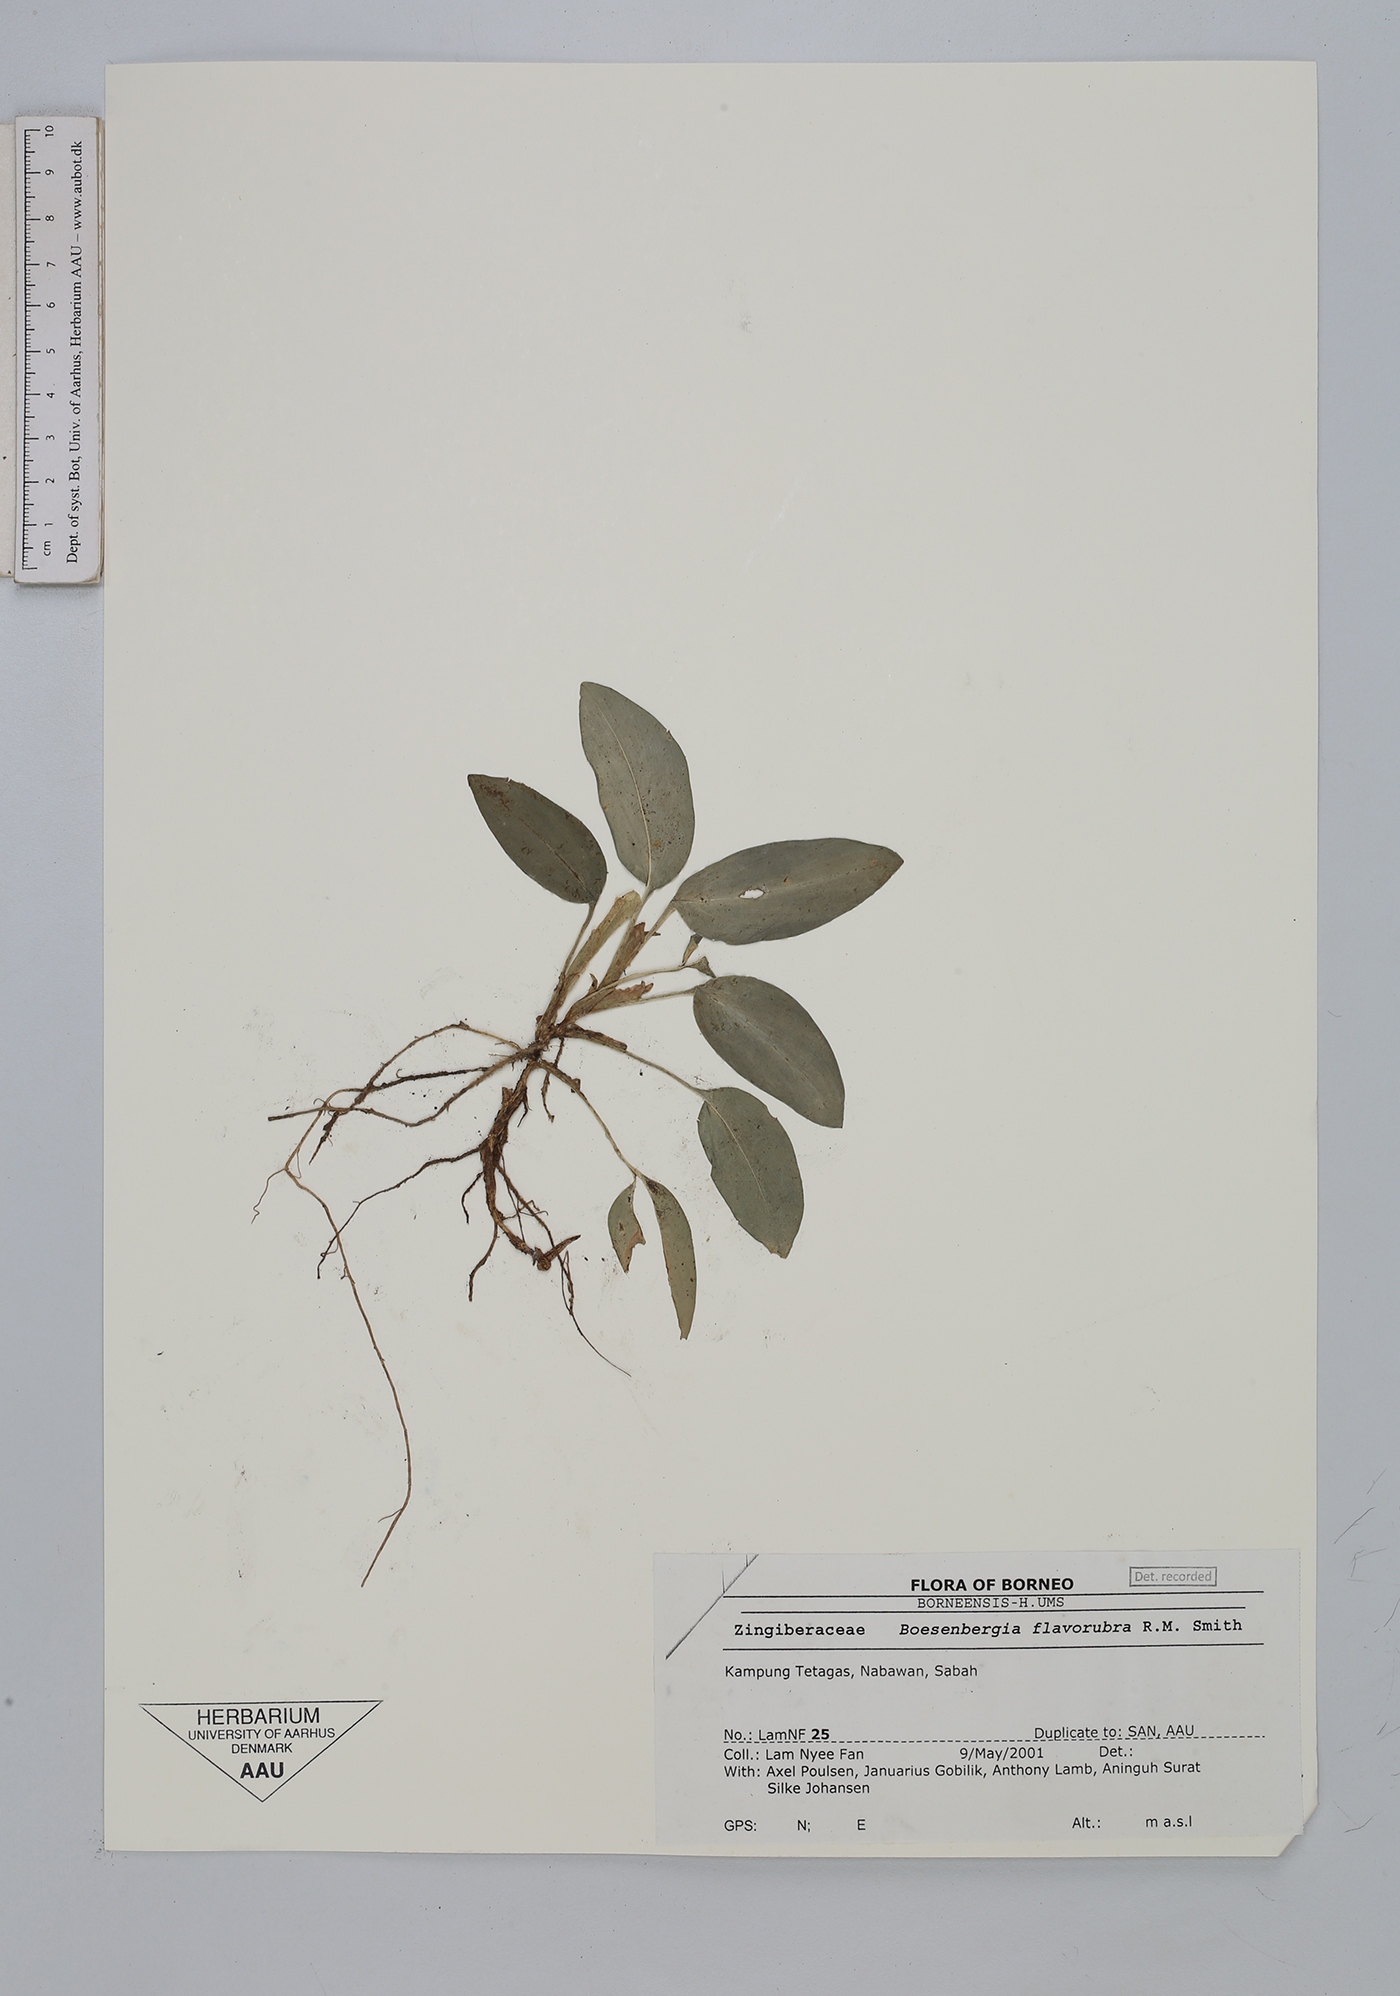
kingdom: Plantae
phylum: Tracheophyta
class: Liliopsida
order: Zingiberales
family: Zingiberaceae
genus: Boesenbergia
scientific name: Boesenbergia flavorubra
